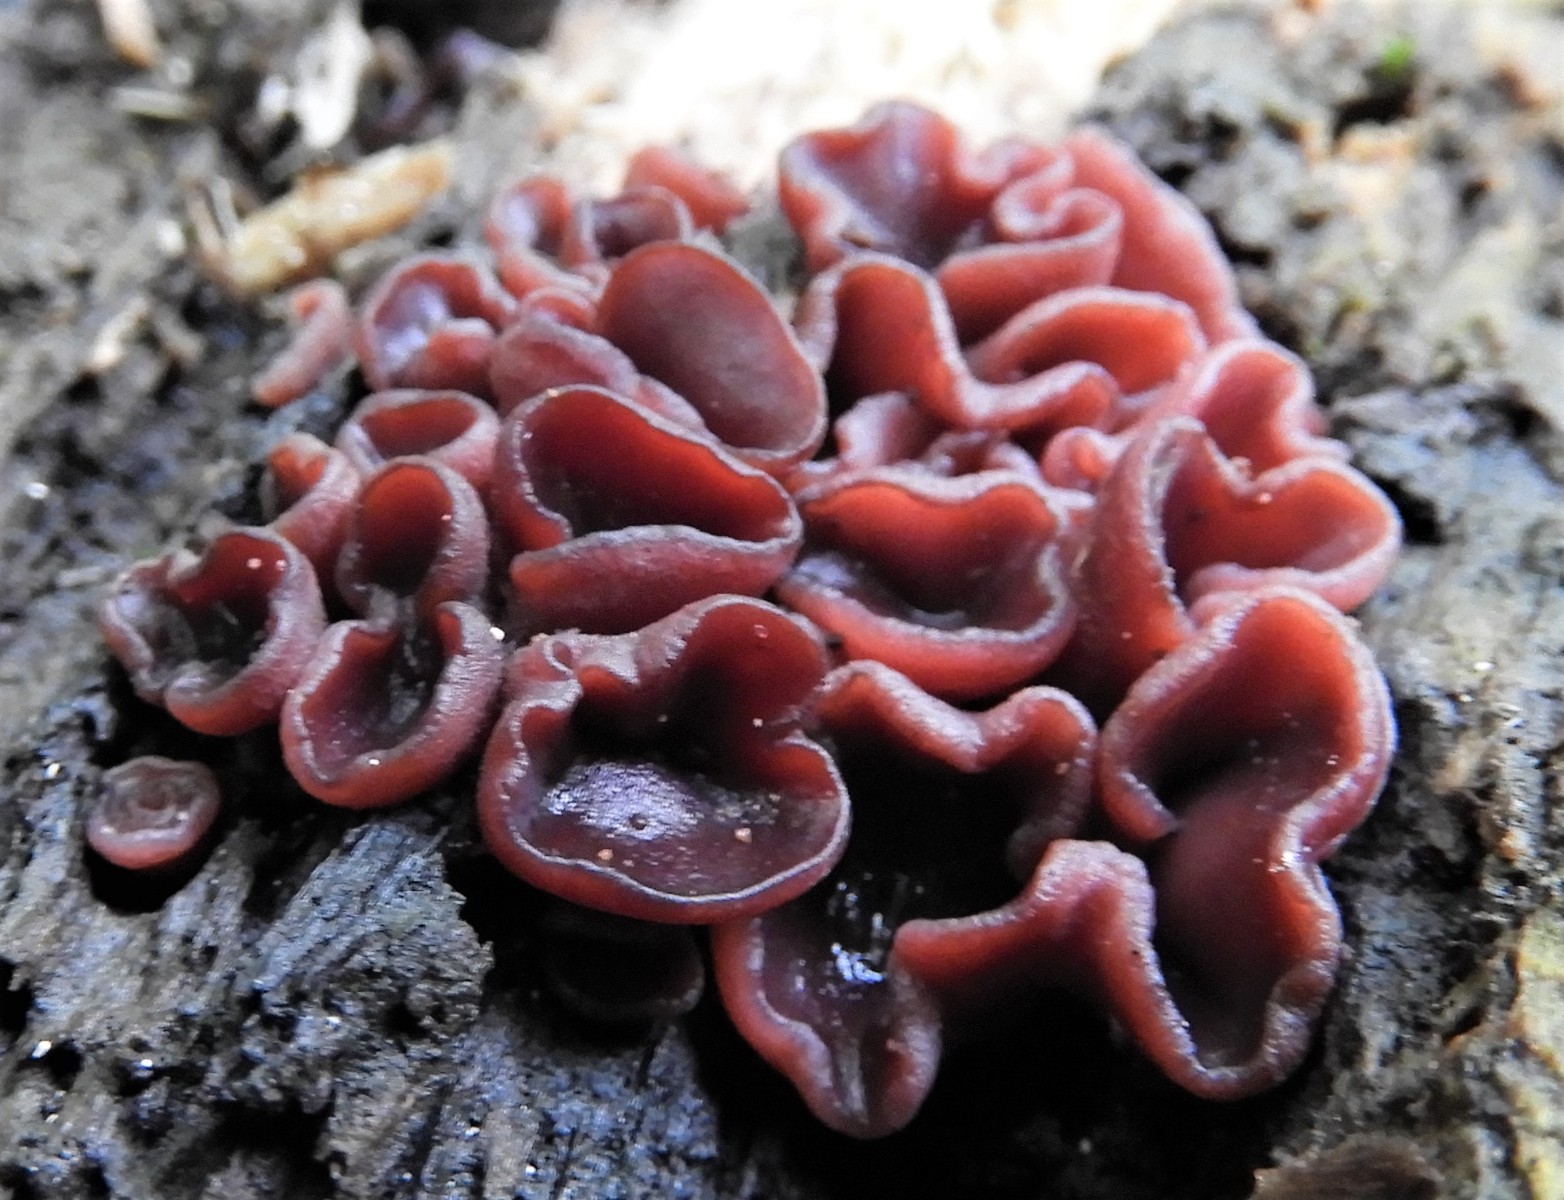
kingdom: Fungi
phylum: Ascomycota
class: Leotiomycetes
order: Helotiales
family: Gelatinodiscaceae
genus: Ascocoryne
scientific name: Ascocoryne cylichnium
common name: stor sejskive
